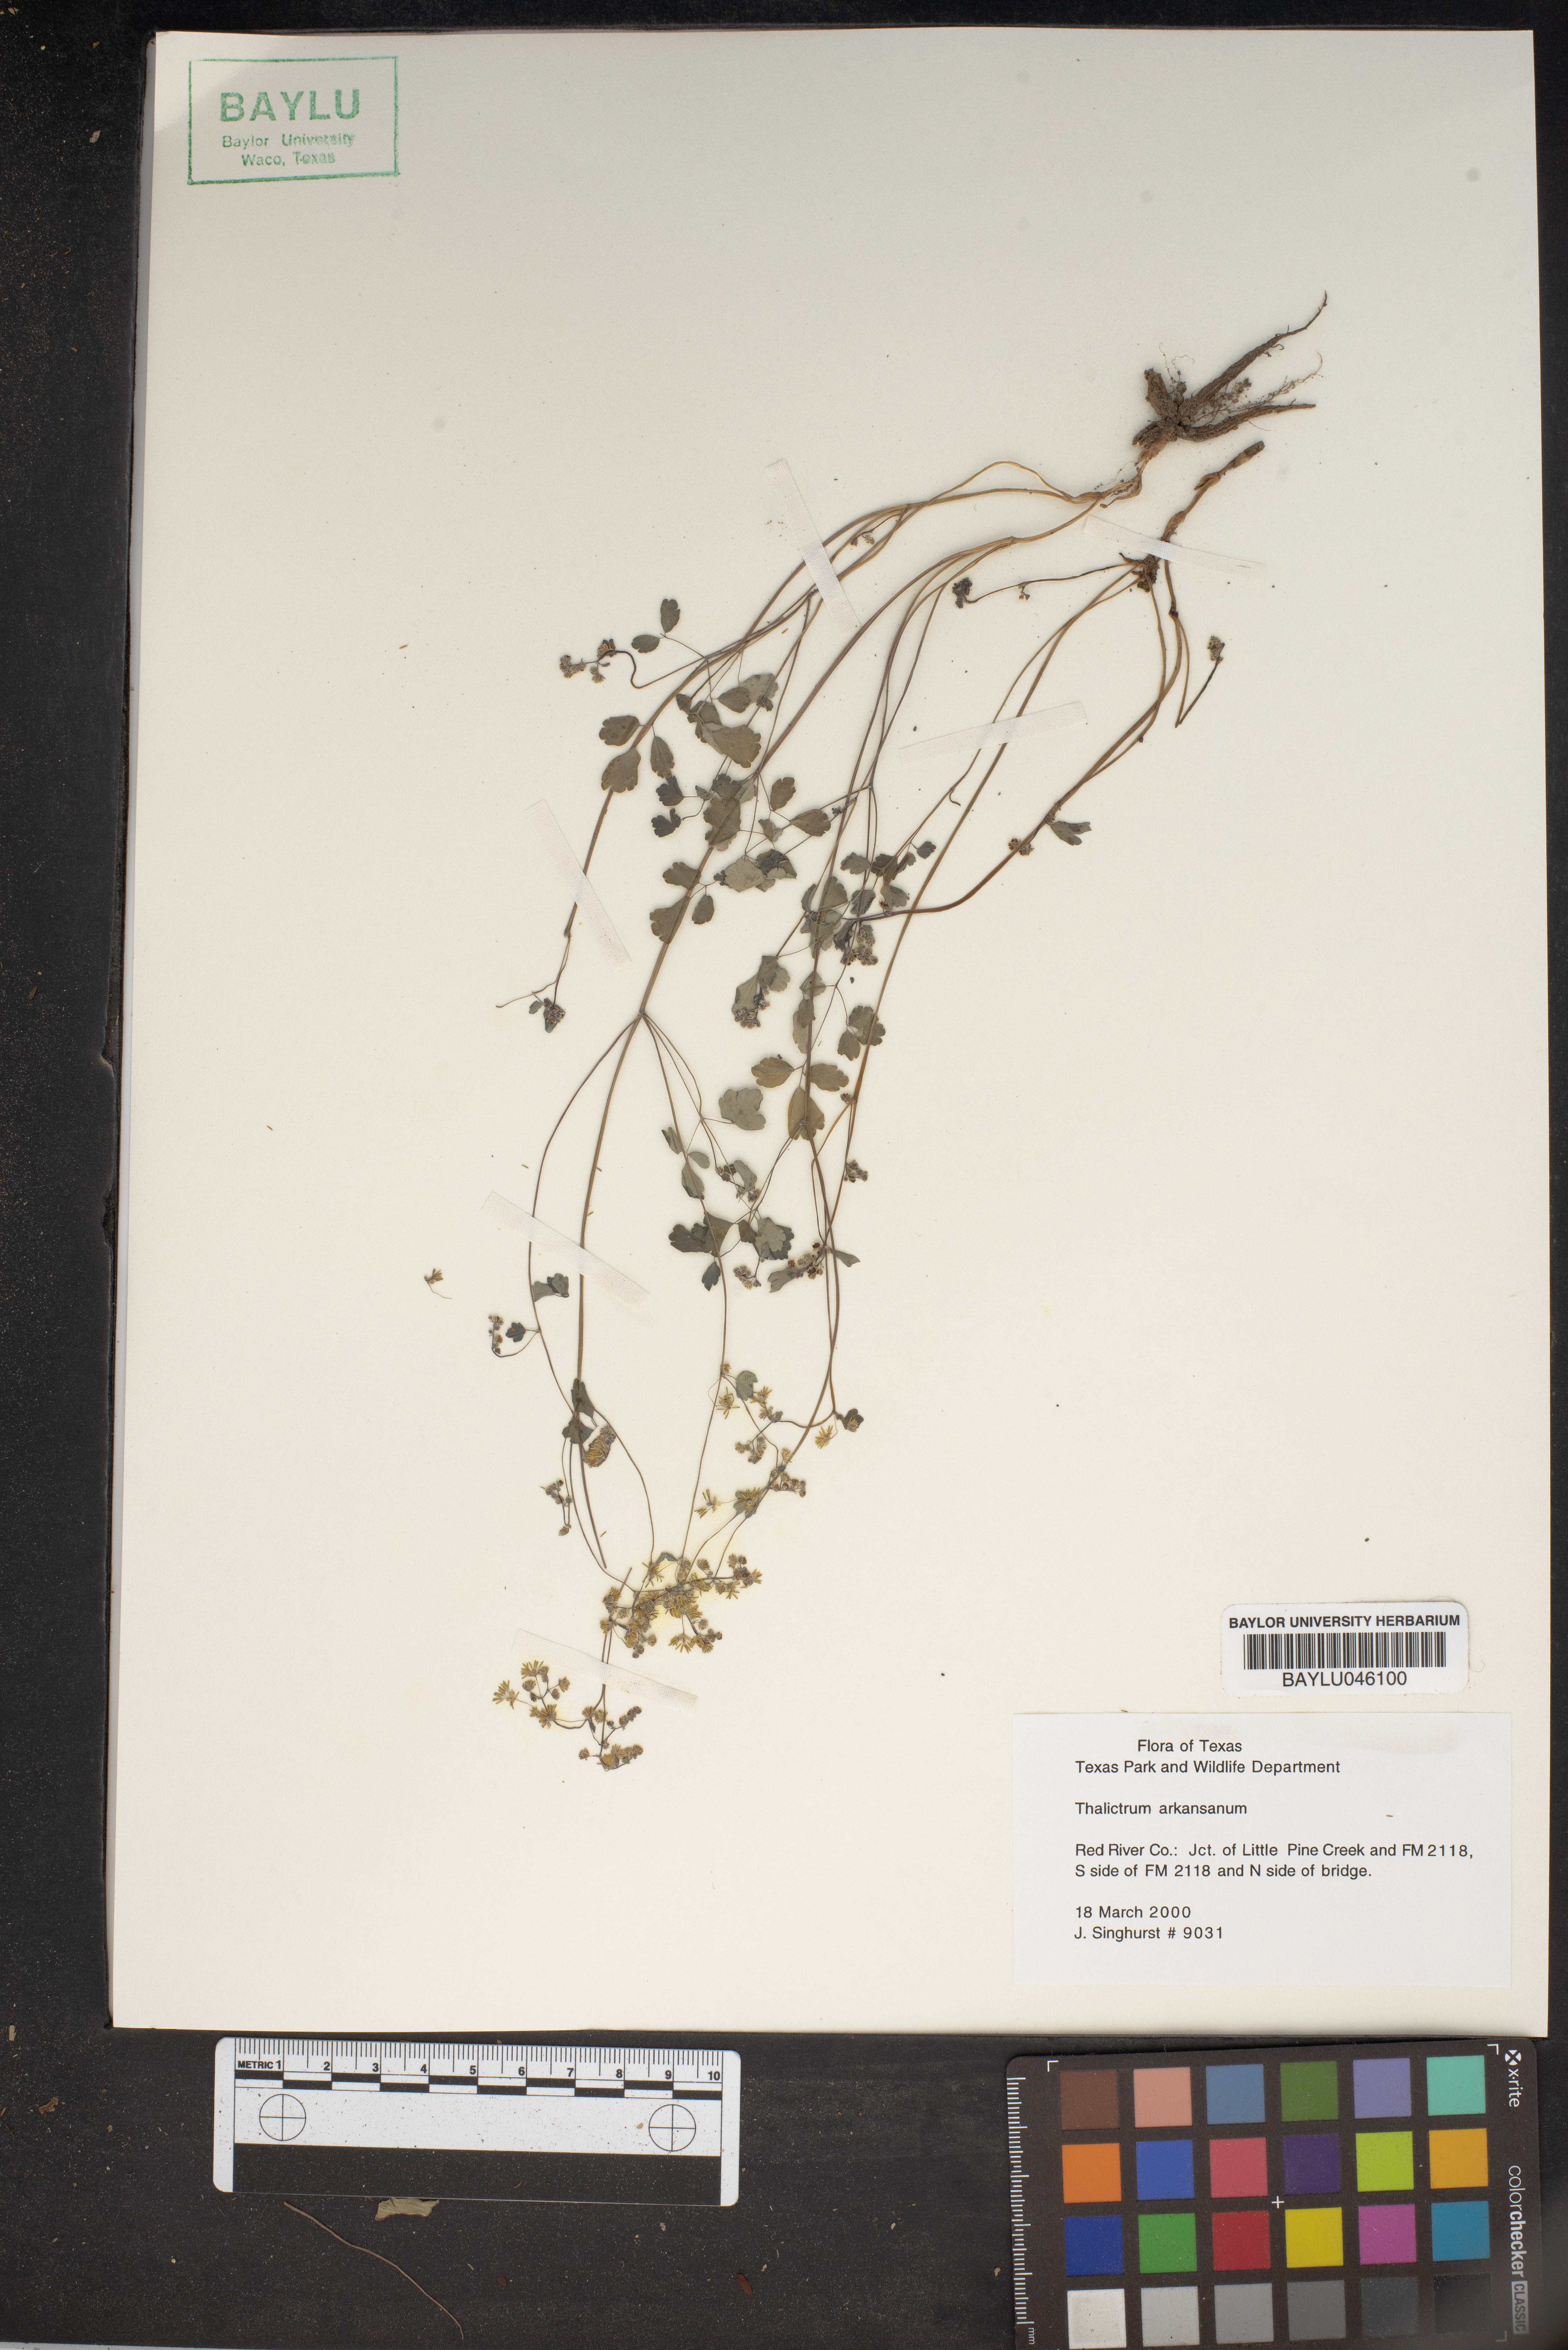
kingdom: Plantae
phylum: Tracheophyta
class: Magnoliopsida
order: Ranunculales
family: Ranunculaceae
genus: Thalictrum
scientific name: Thalictrum arkansanum
